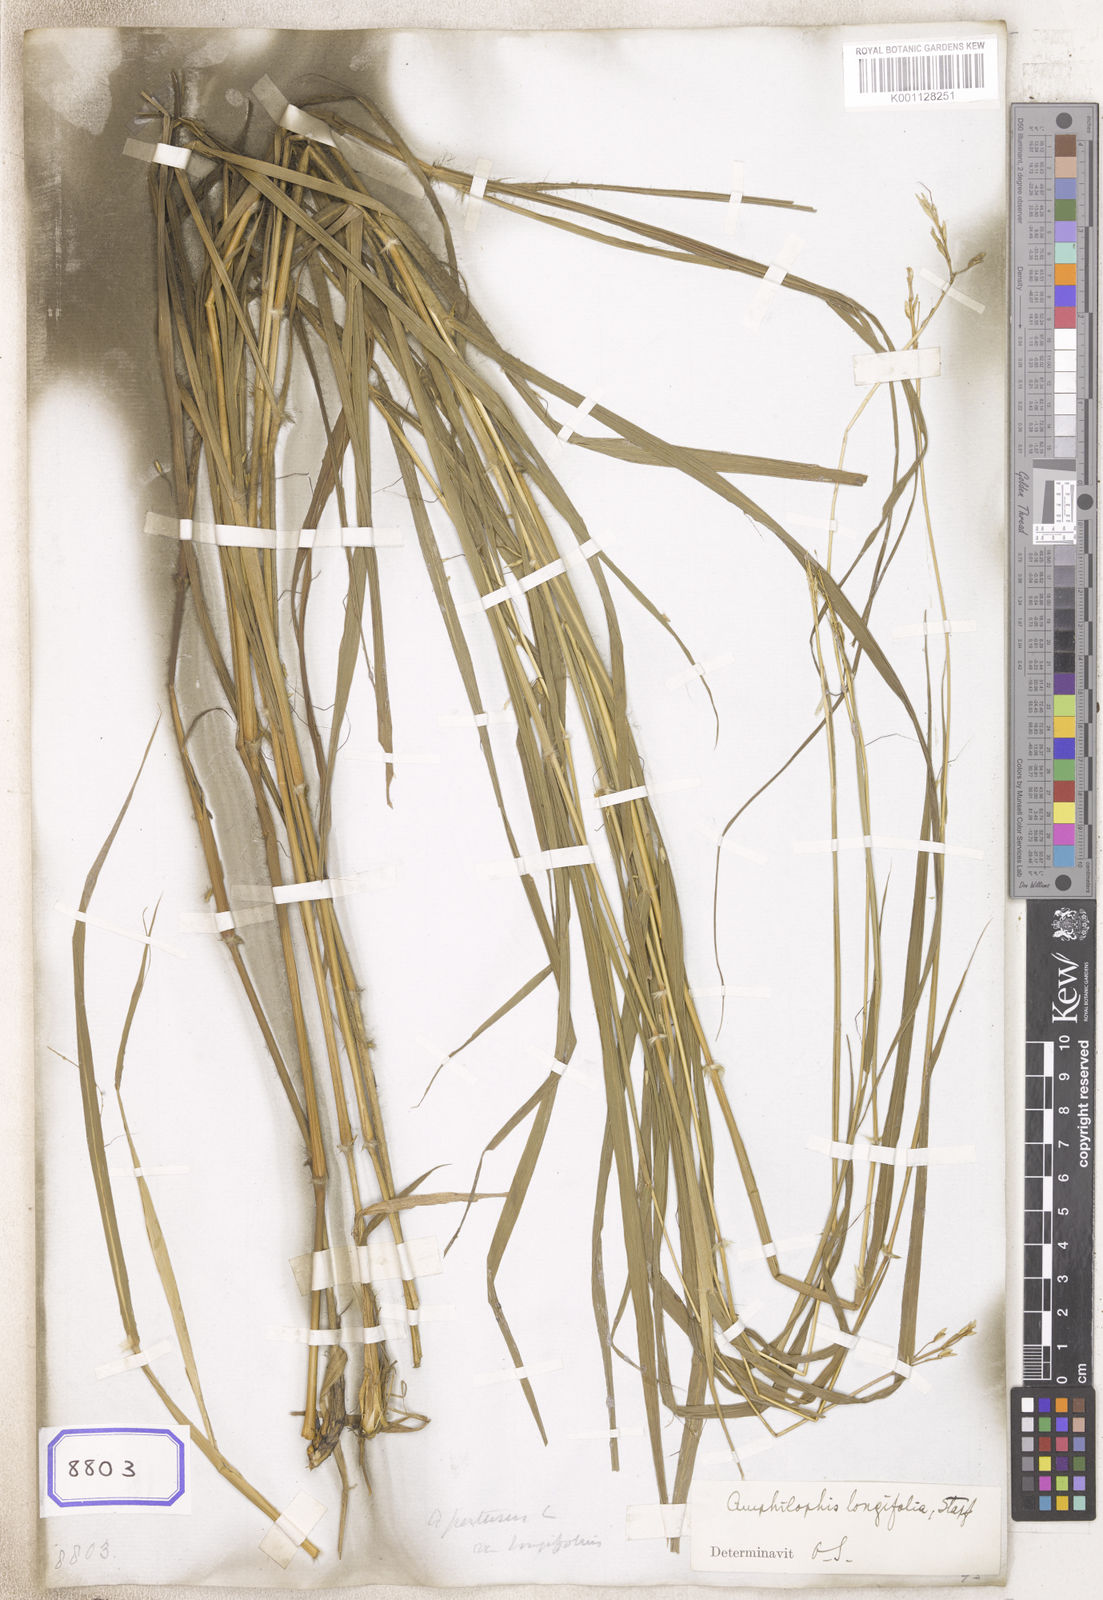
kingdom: Plantae
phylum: Tracheophyta
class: Liliopsida
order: Poales
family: Poaceae
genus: Andropogon
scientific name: Andropogon
